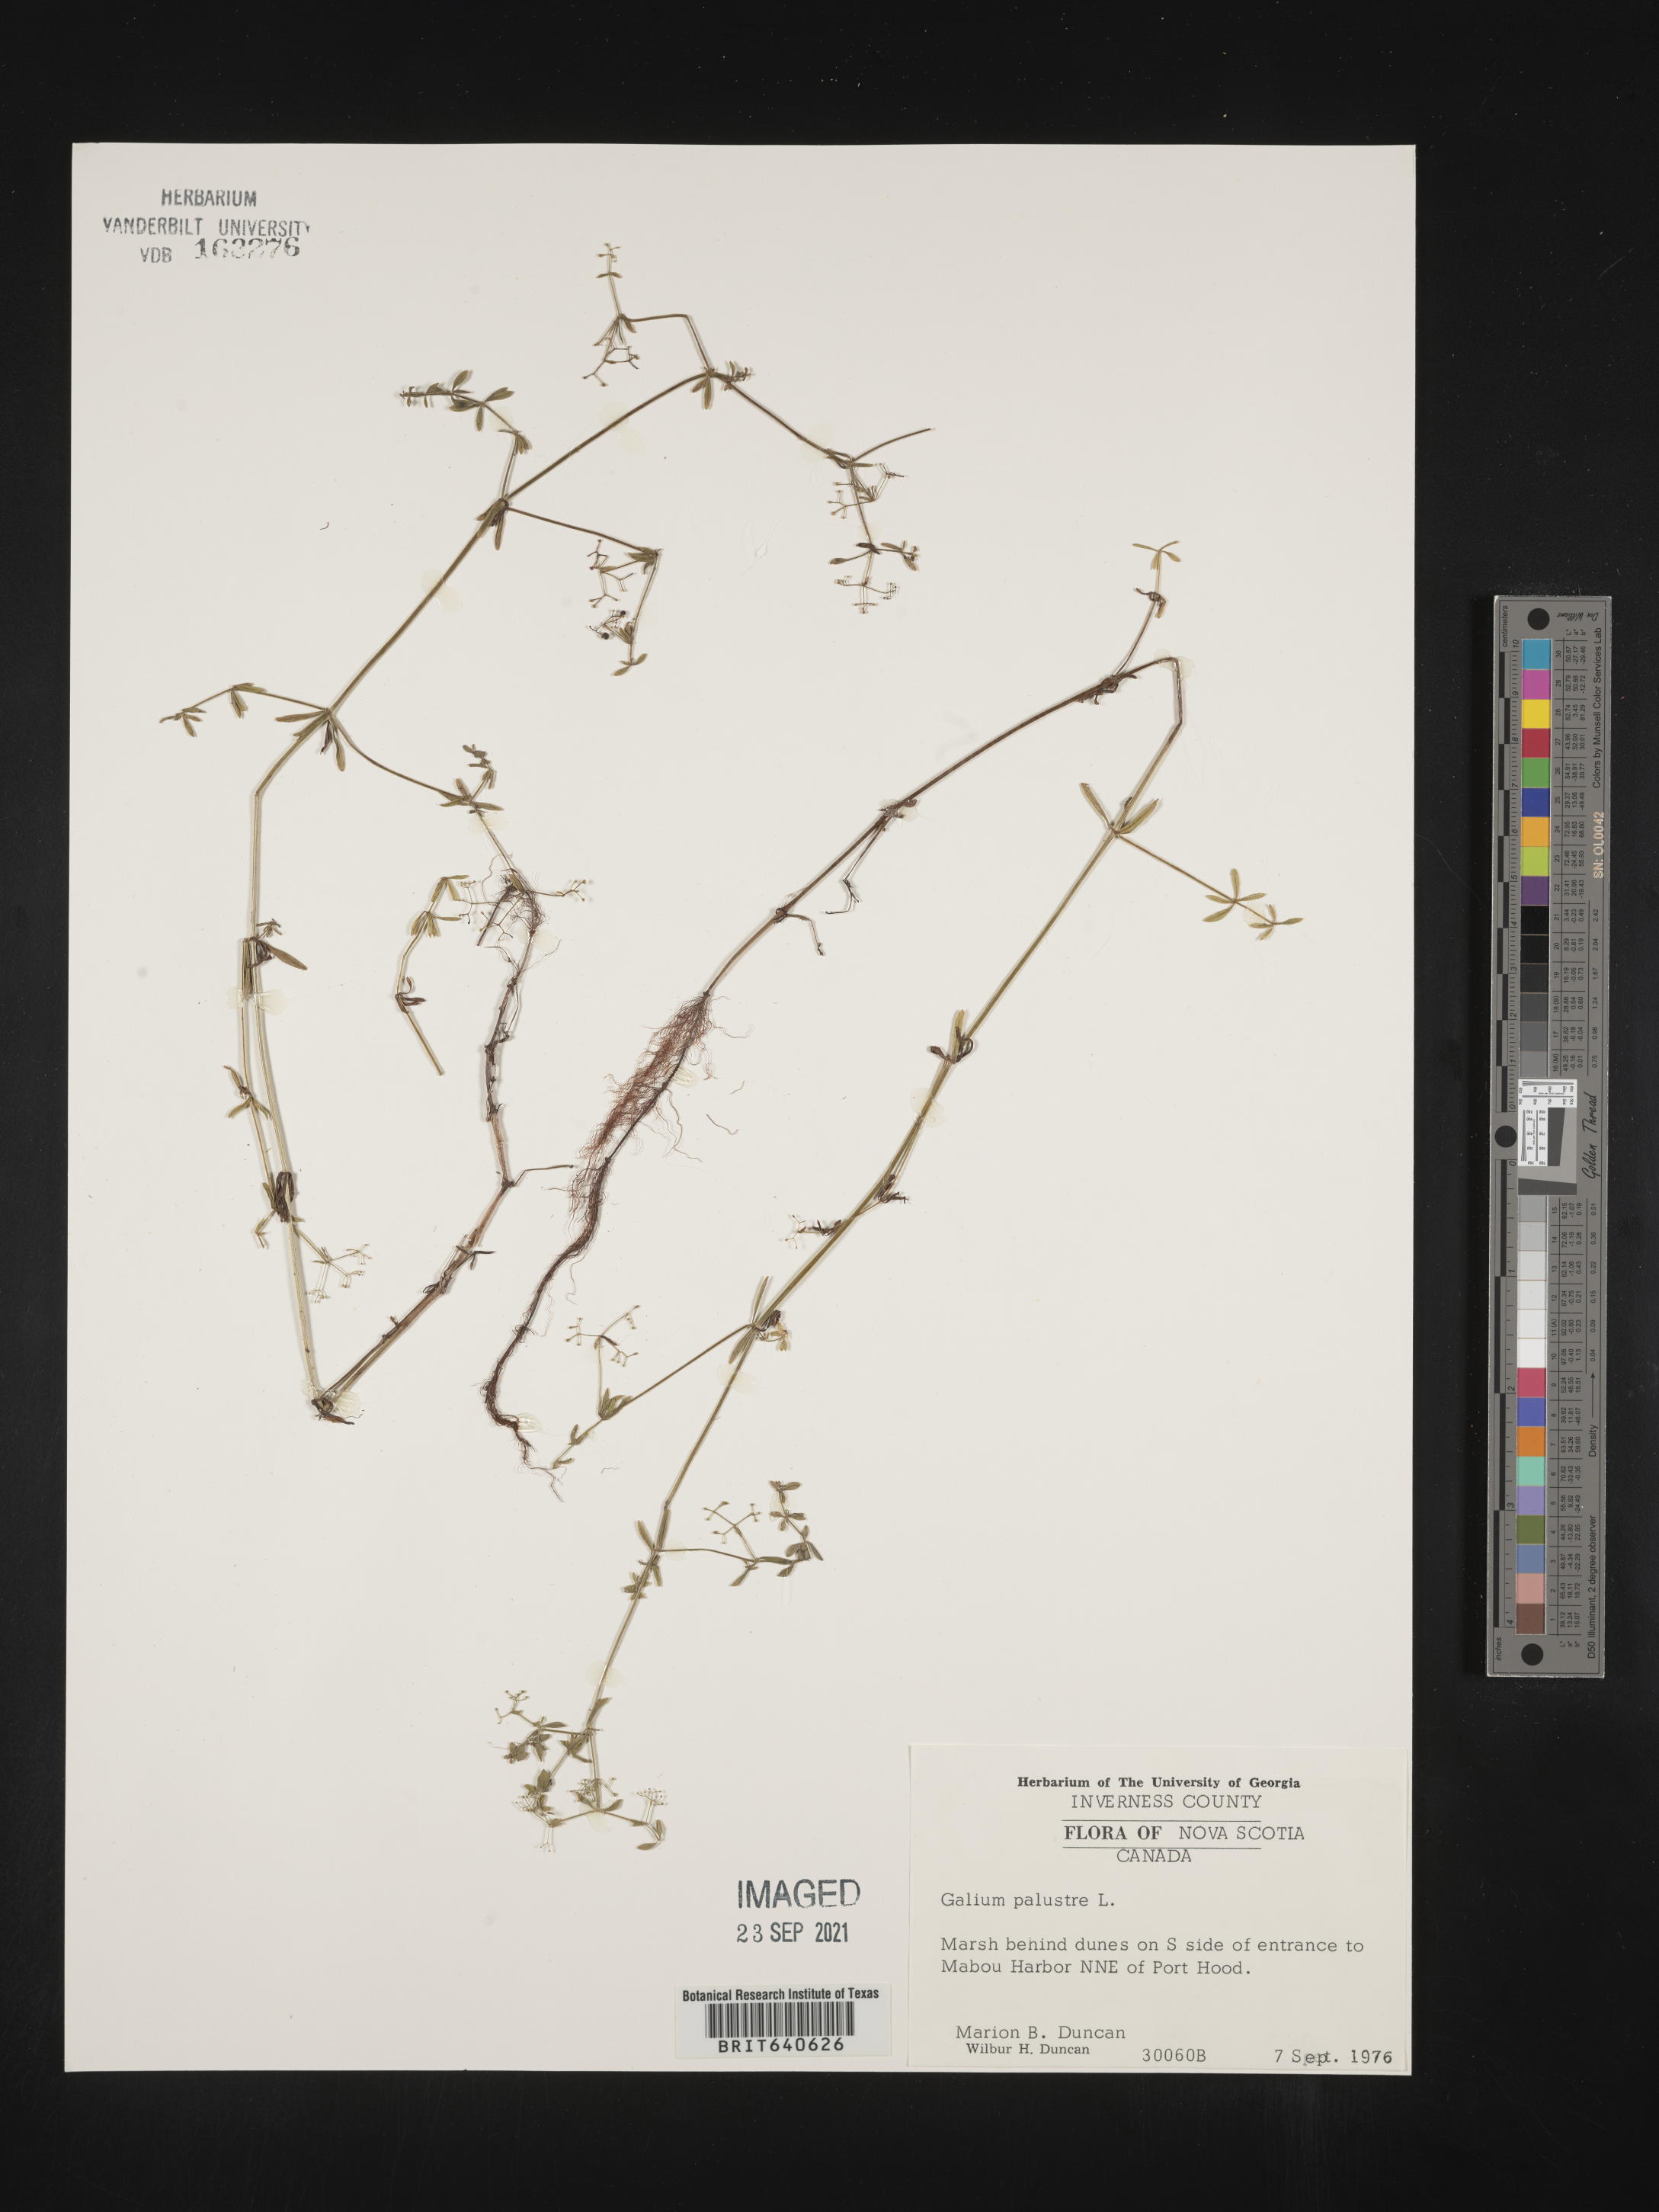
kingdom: Plantae
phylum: Tracheophyta
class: Magnoliopsida
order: Gentianales
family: Rubiaceae
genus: Galium
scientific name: Galium
